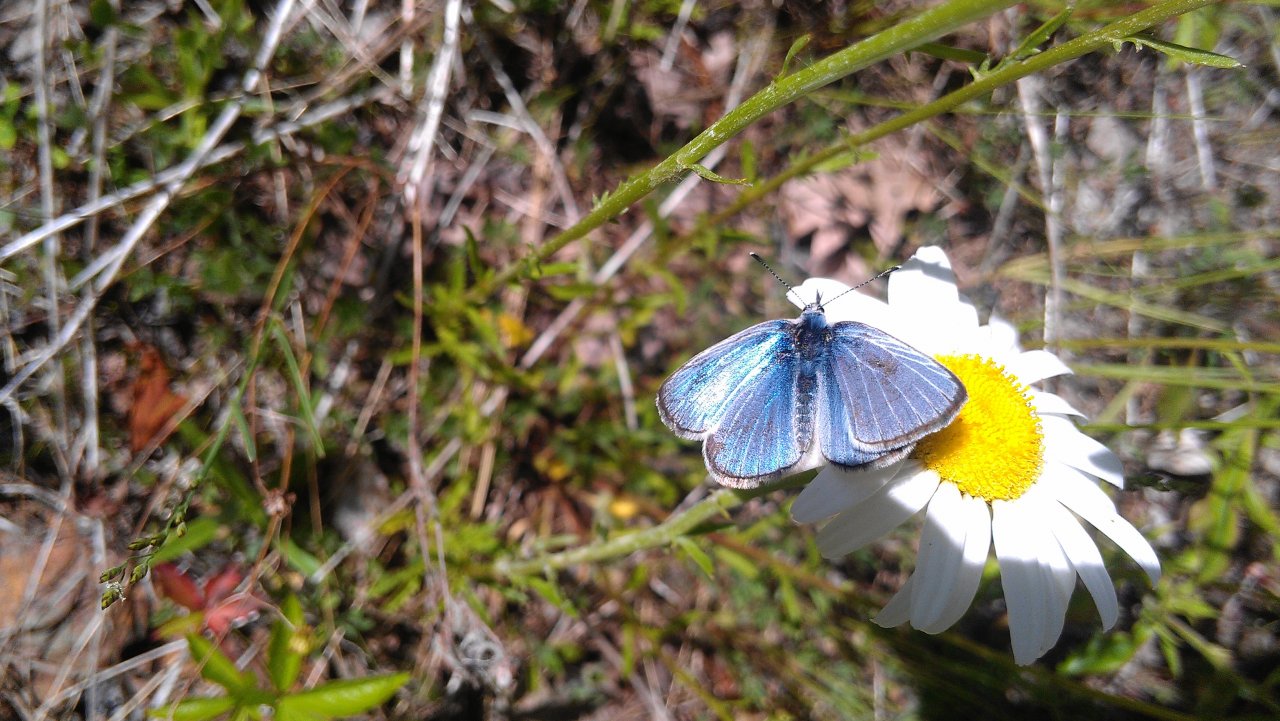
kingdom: Animalia
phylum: Arthropoda
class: Insecta
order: Lepidoptera
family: Lycaenidae
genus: Glaucopsyche
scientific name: Glaucopsyche lygdamus
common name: Silvery Blue
